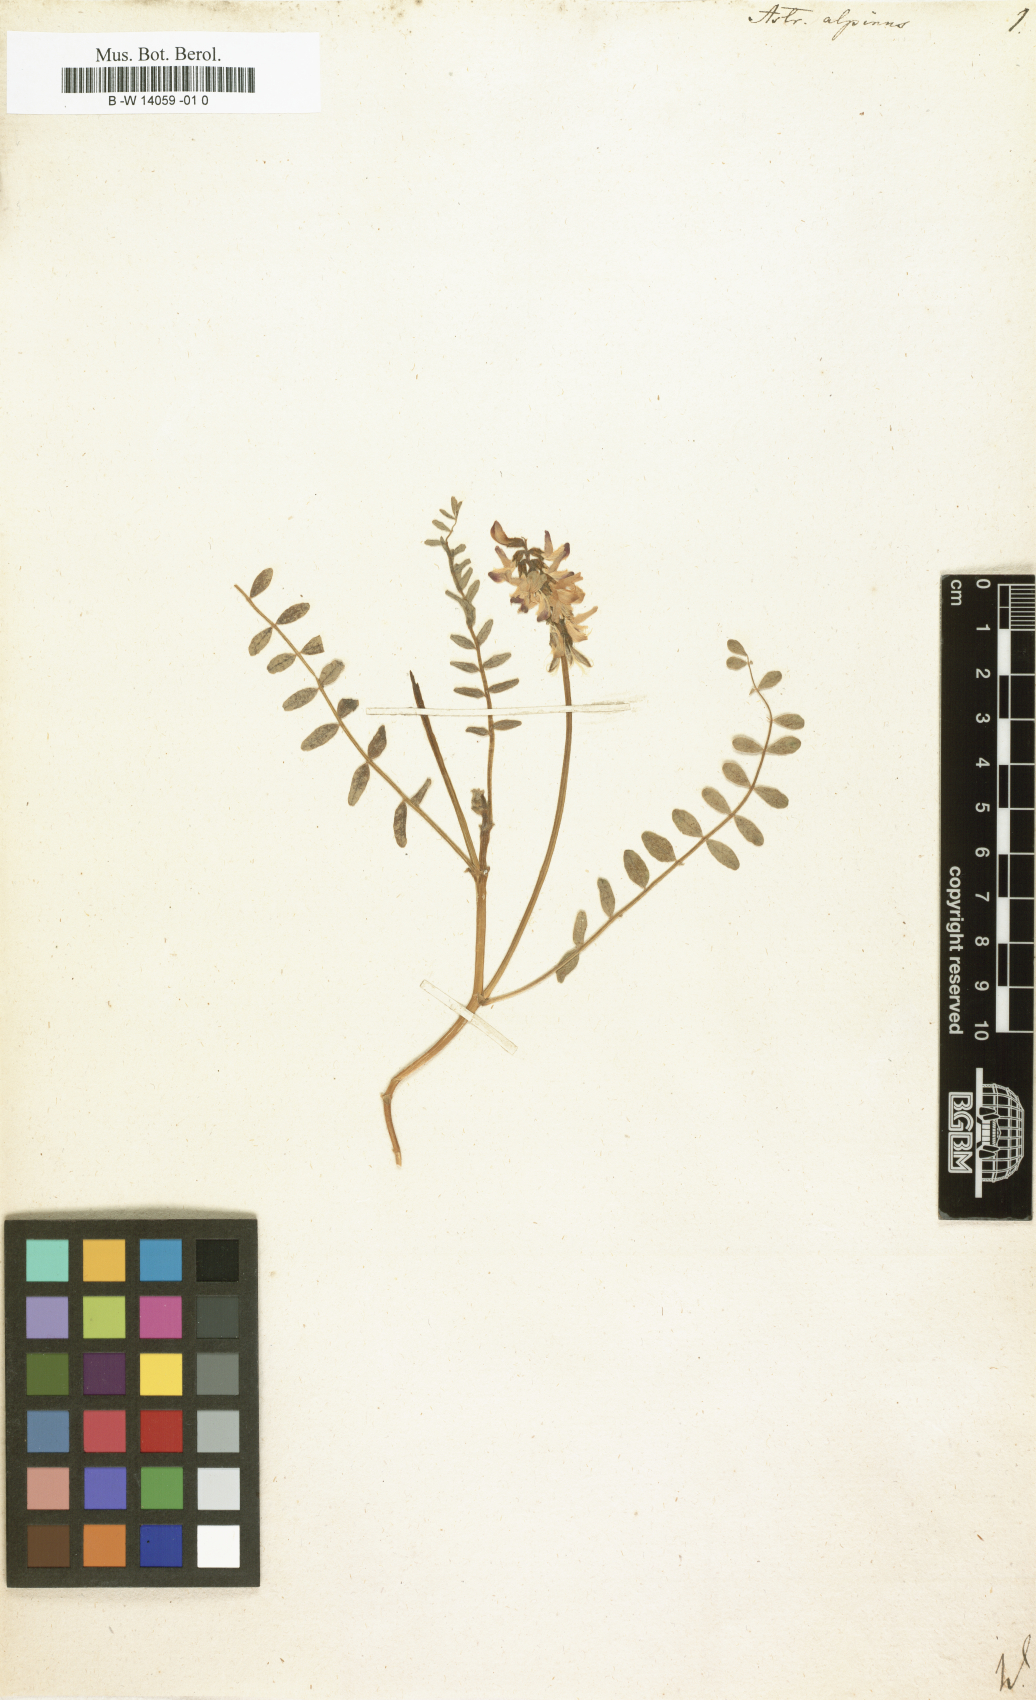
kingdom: Plantae
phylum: Tracheophyta
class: Magnoliopsida
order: Fabales
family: Fabaceae
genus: Astragalus
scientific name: Astragalus alpinus
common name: Alpine milk-vetch
